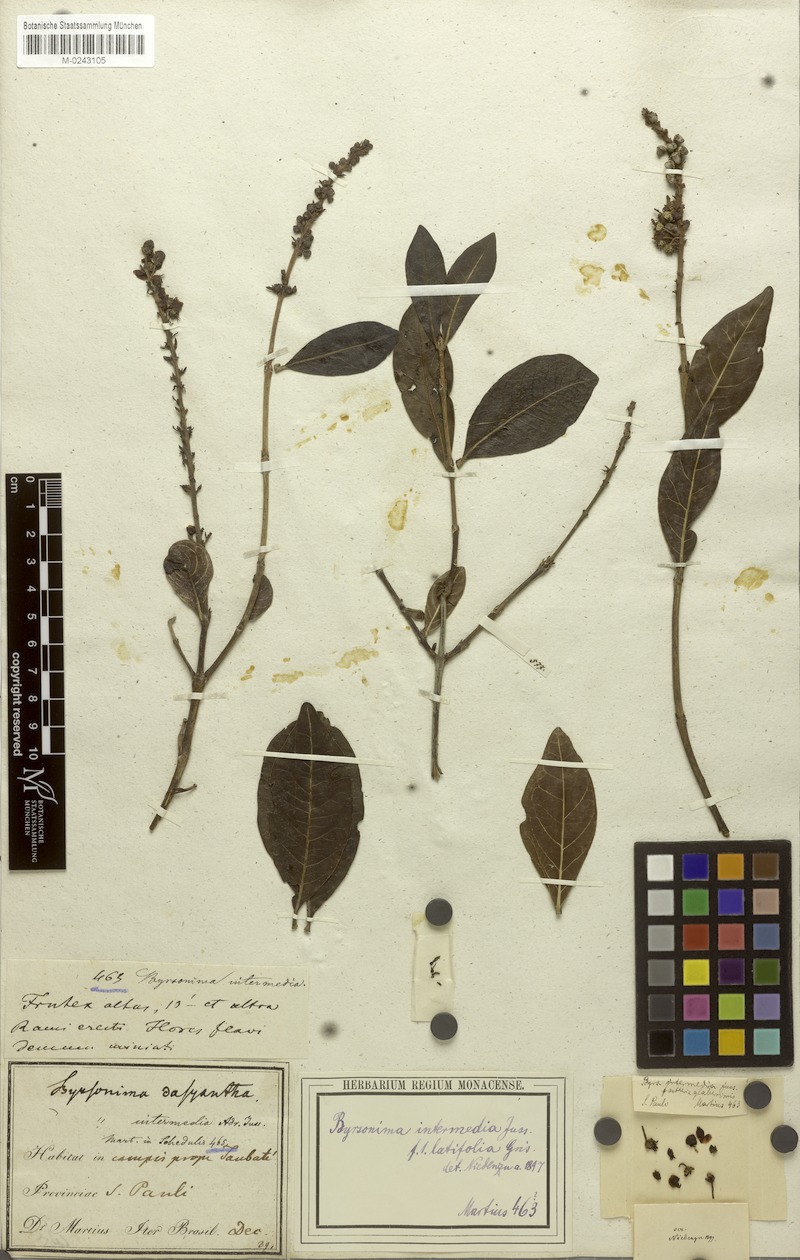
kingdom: Plantae
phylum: Tracheophyta
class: Magnoliopsida
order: Malpighiales
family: Malpighiaceae
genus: Byrsonima
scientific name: Byrsonima intermedia
